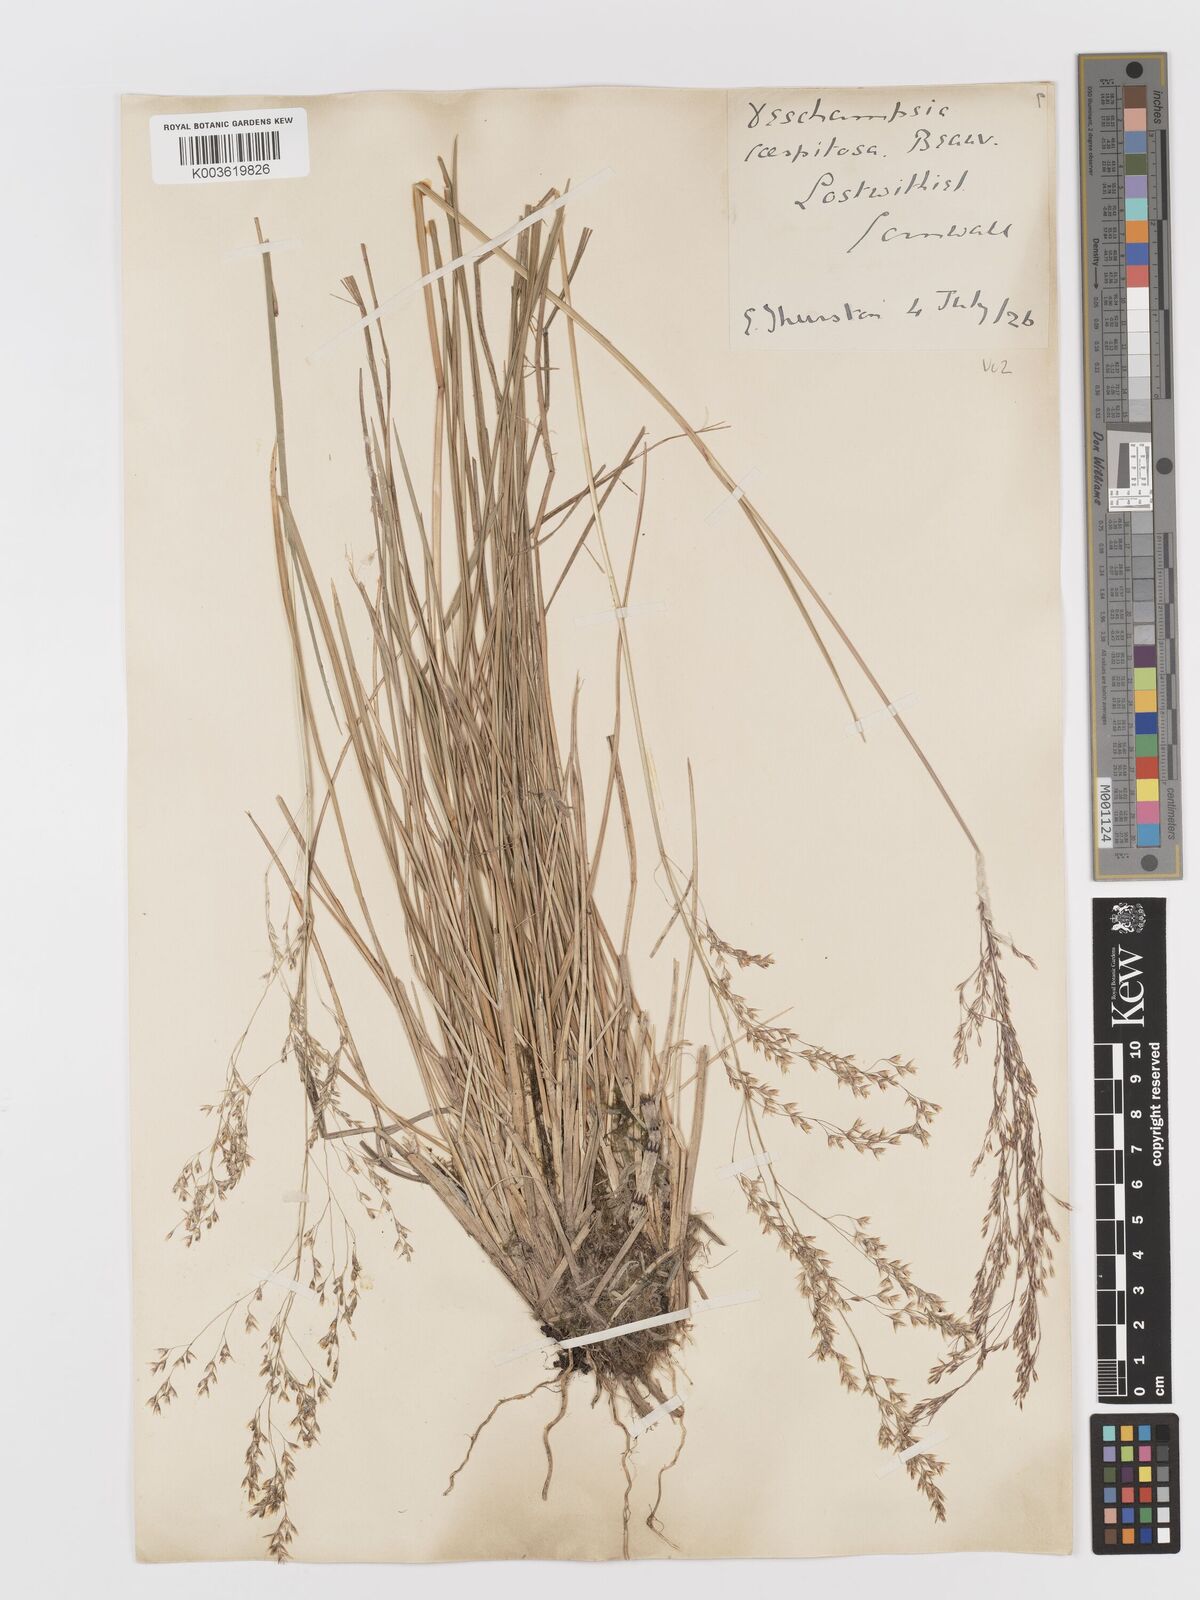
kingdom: Plantae
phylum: Tracheophyta
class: Liliopsida
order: Poales
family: Poaceae
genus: Deschampsia
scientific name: Deschampsia cespitosa
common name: Tufted hair-grass
